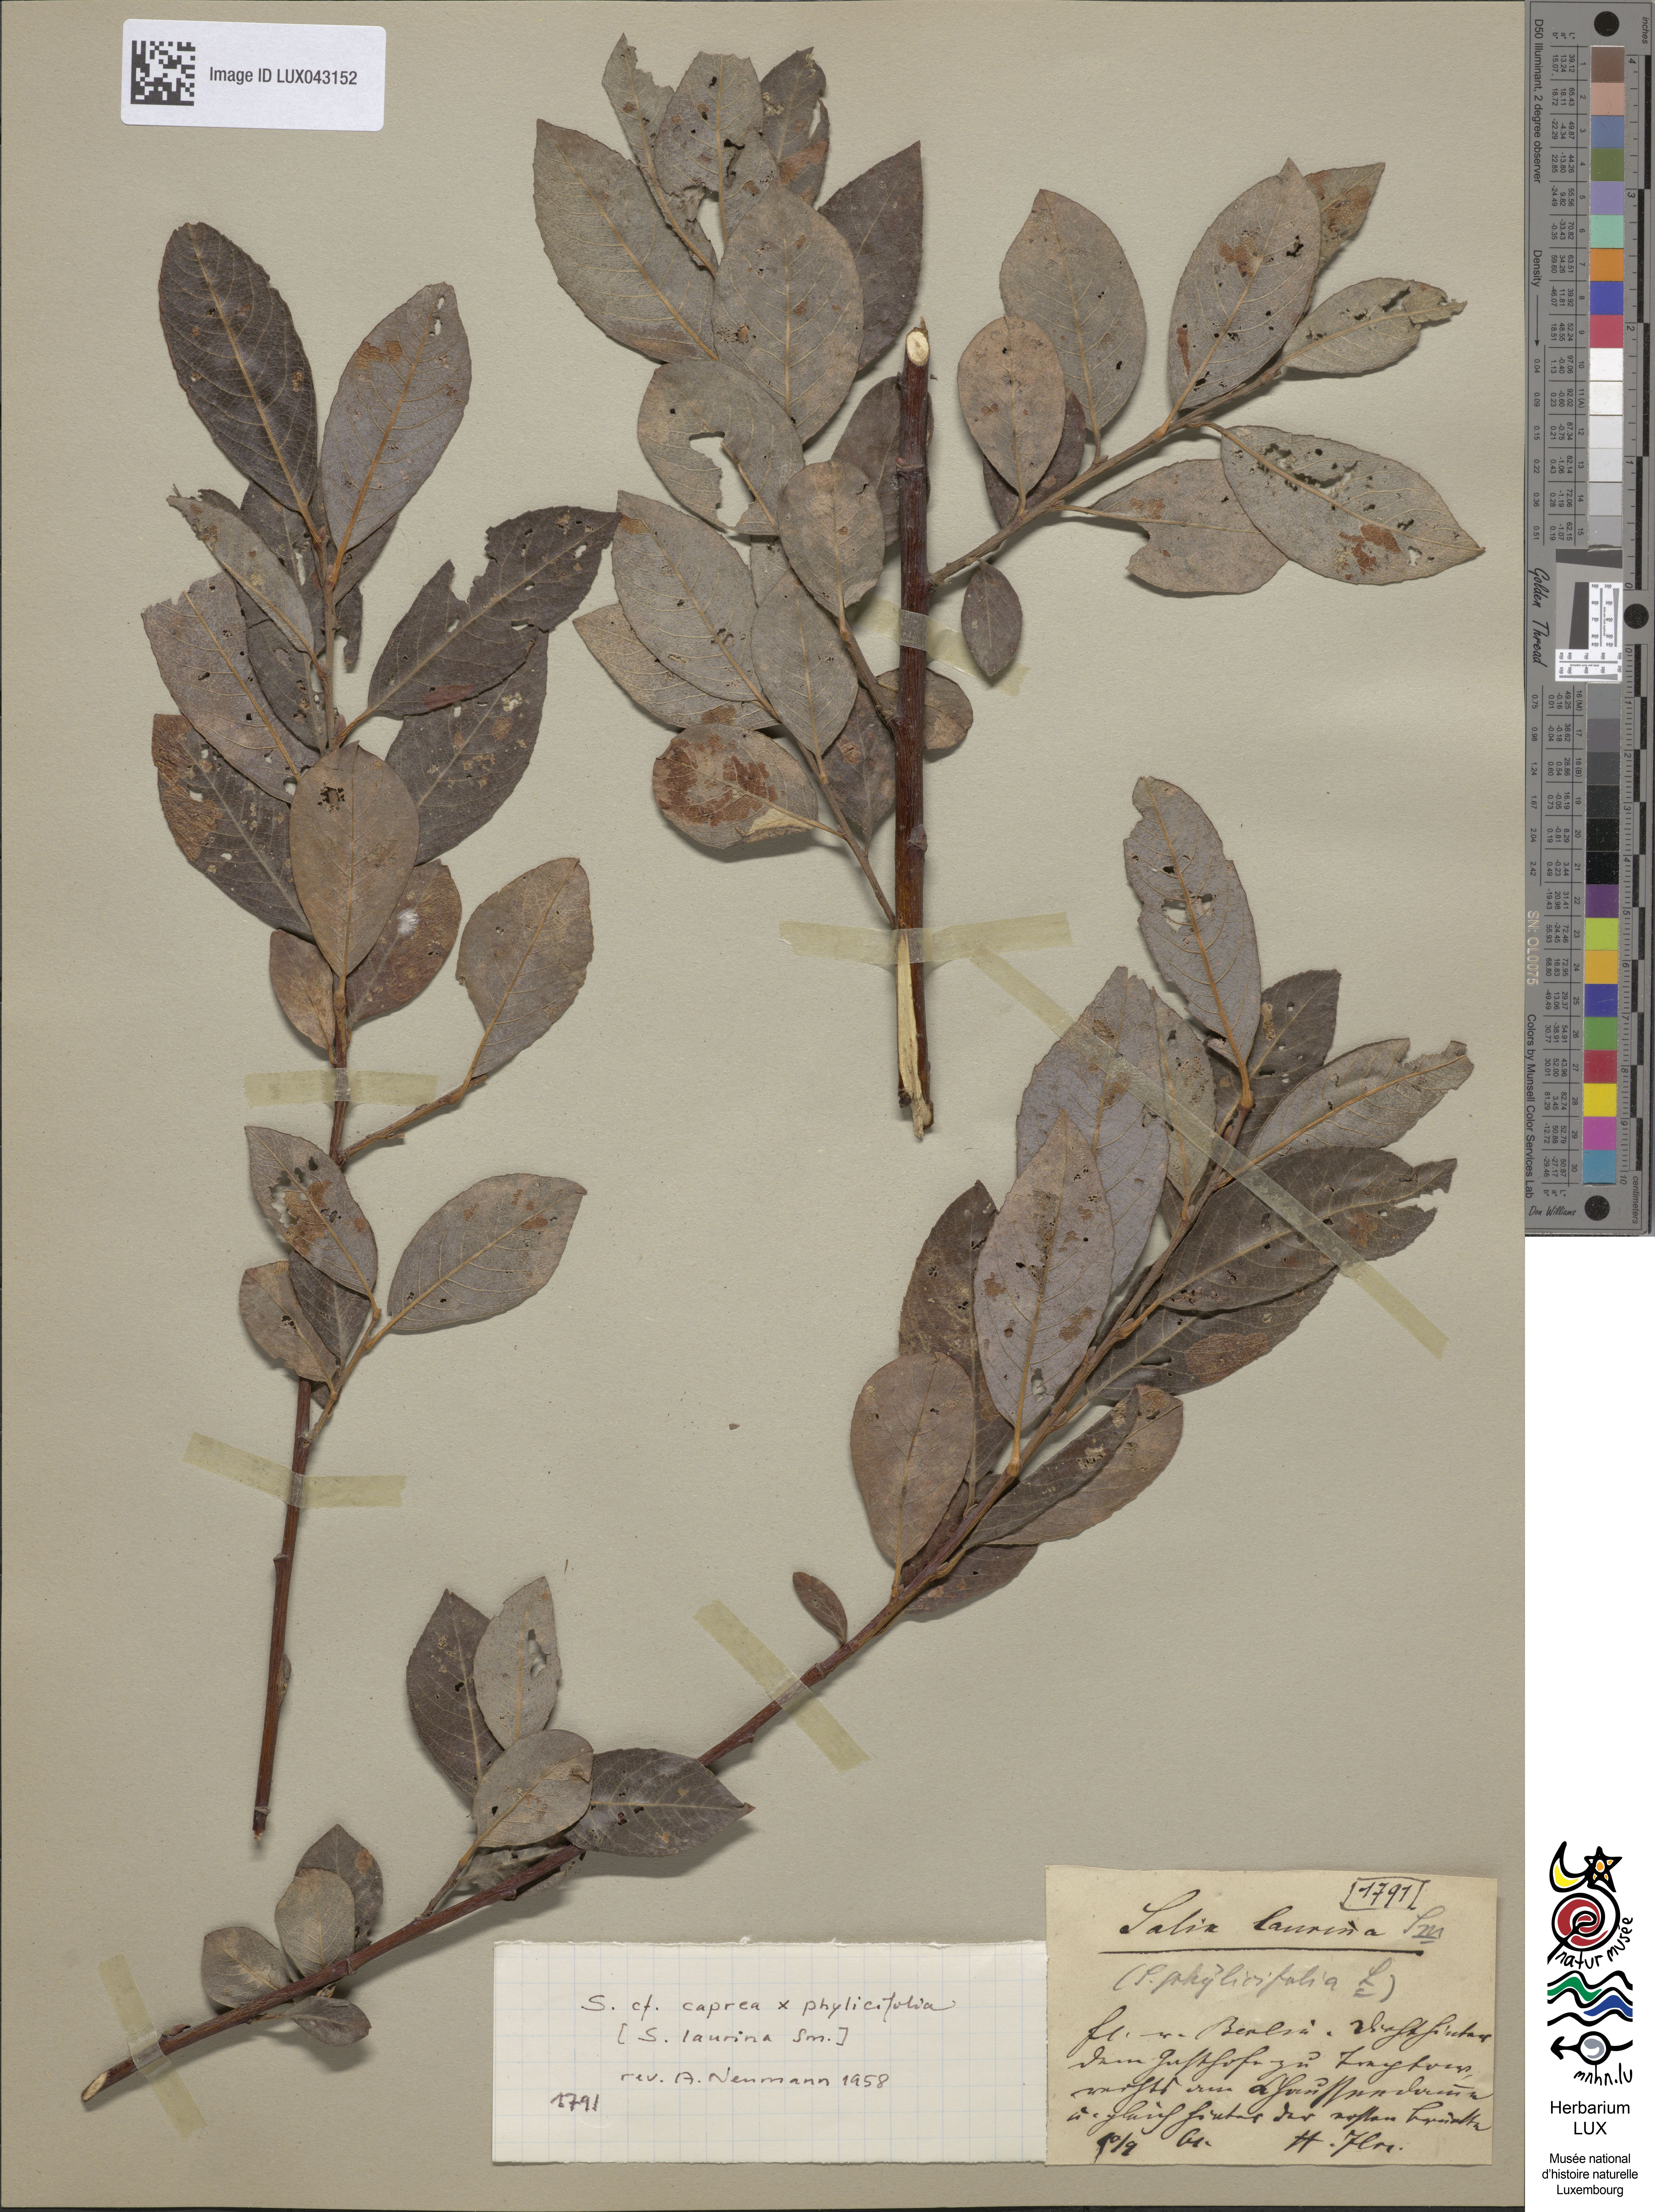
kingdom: Plantae
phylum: Tracheophyta
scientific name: Tracheophyta
